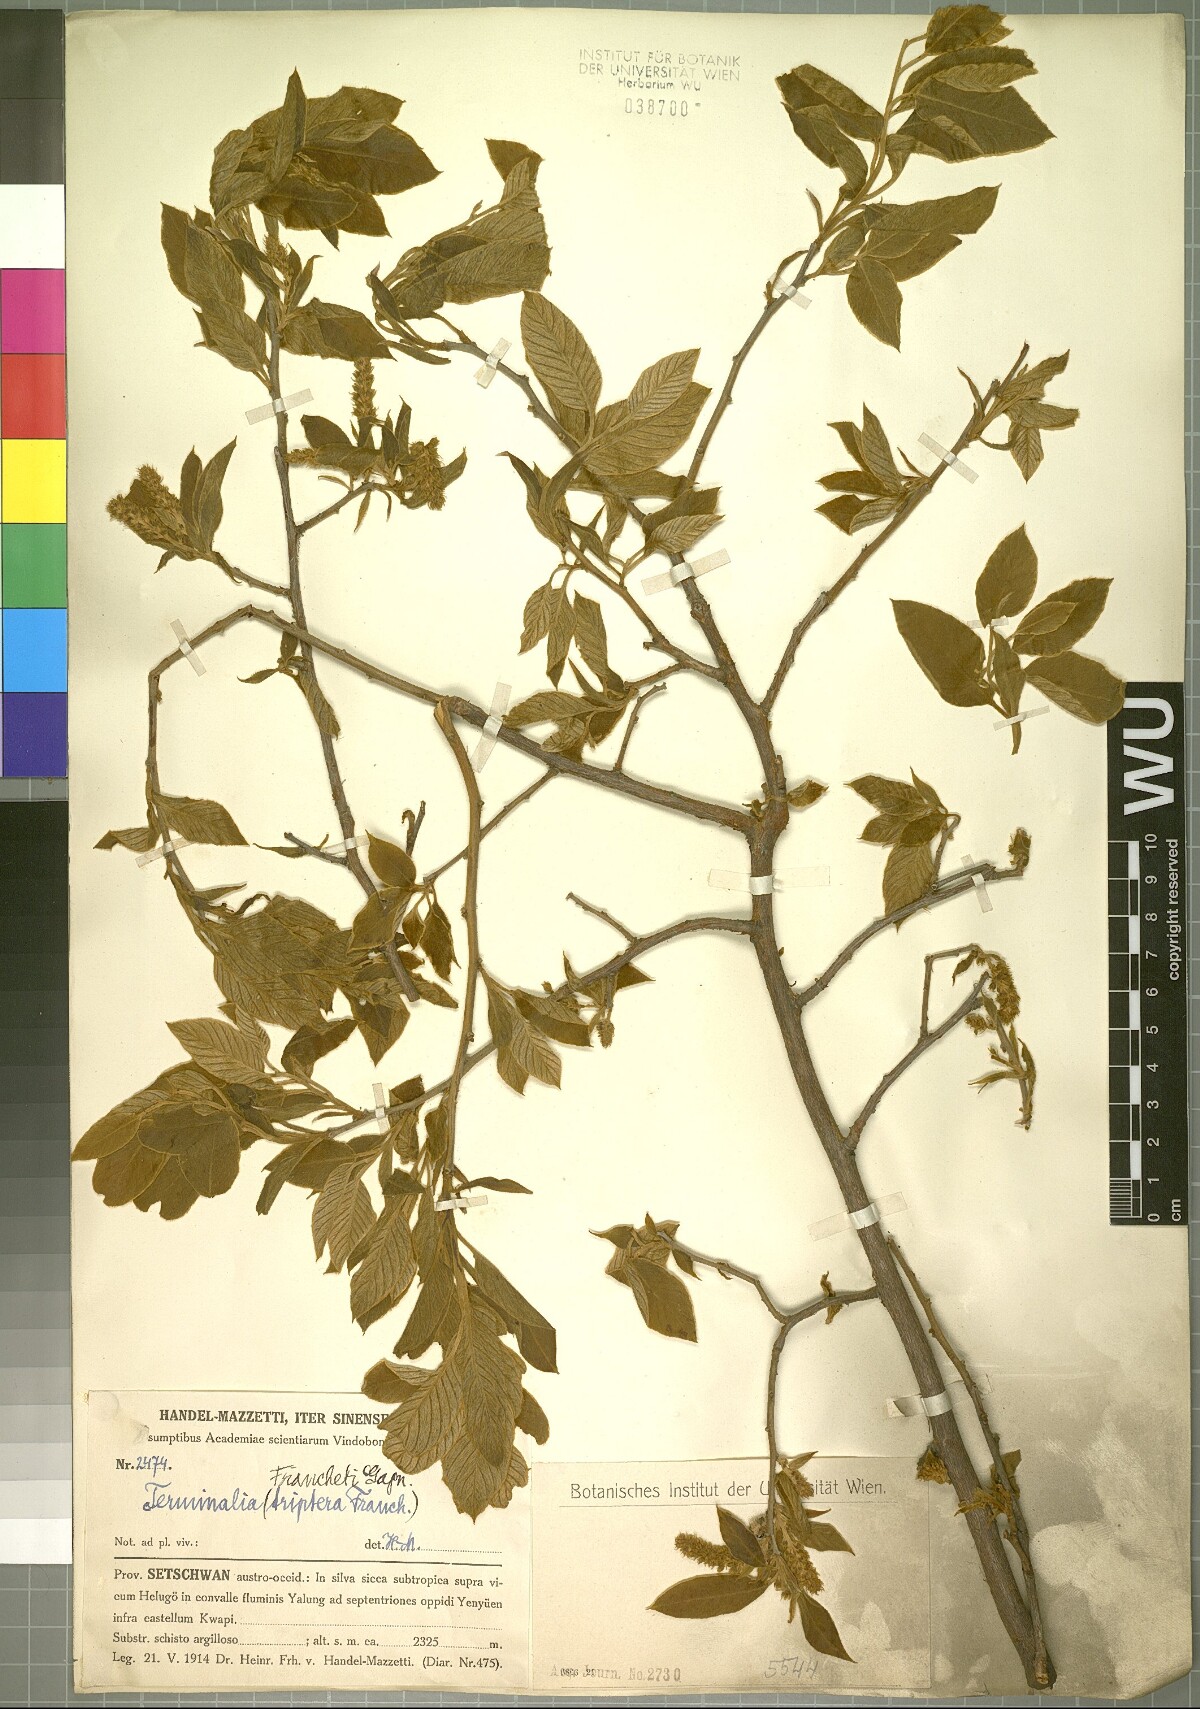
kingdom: Plantae
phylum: Tracheophyta
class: Magnoliopsida
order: Myrtales
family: Combretaceae
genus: Terminalia
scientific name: Terminalia franchetii
